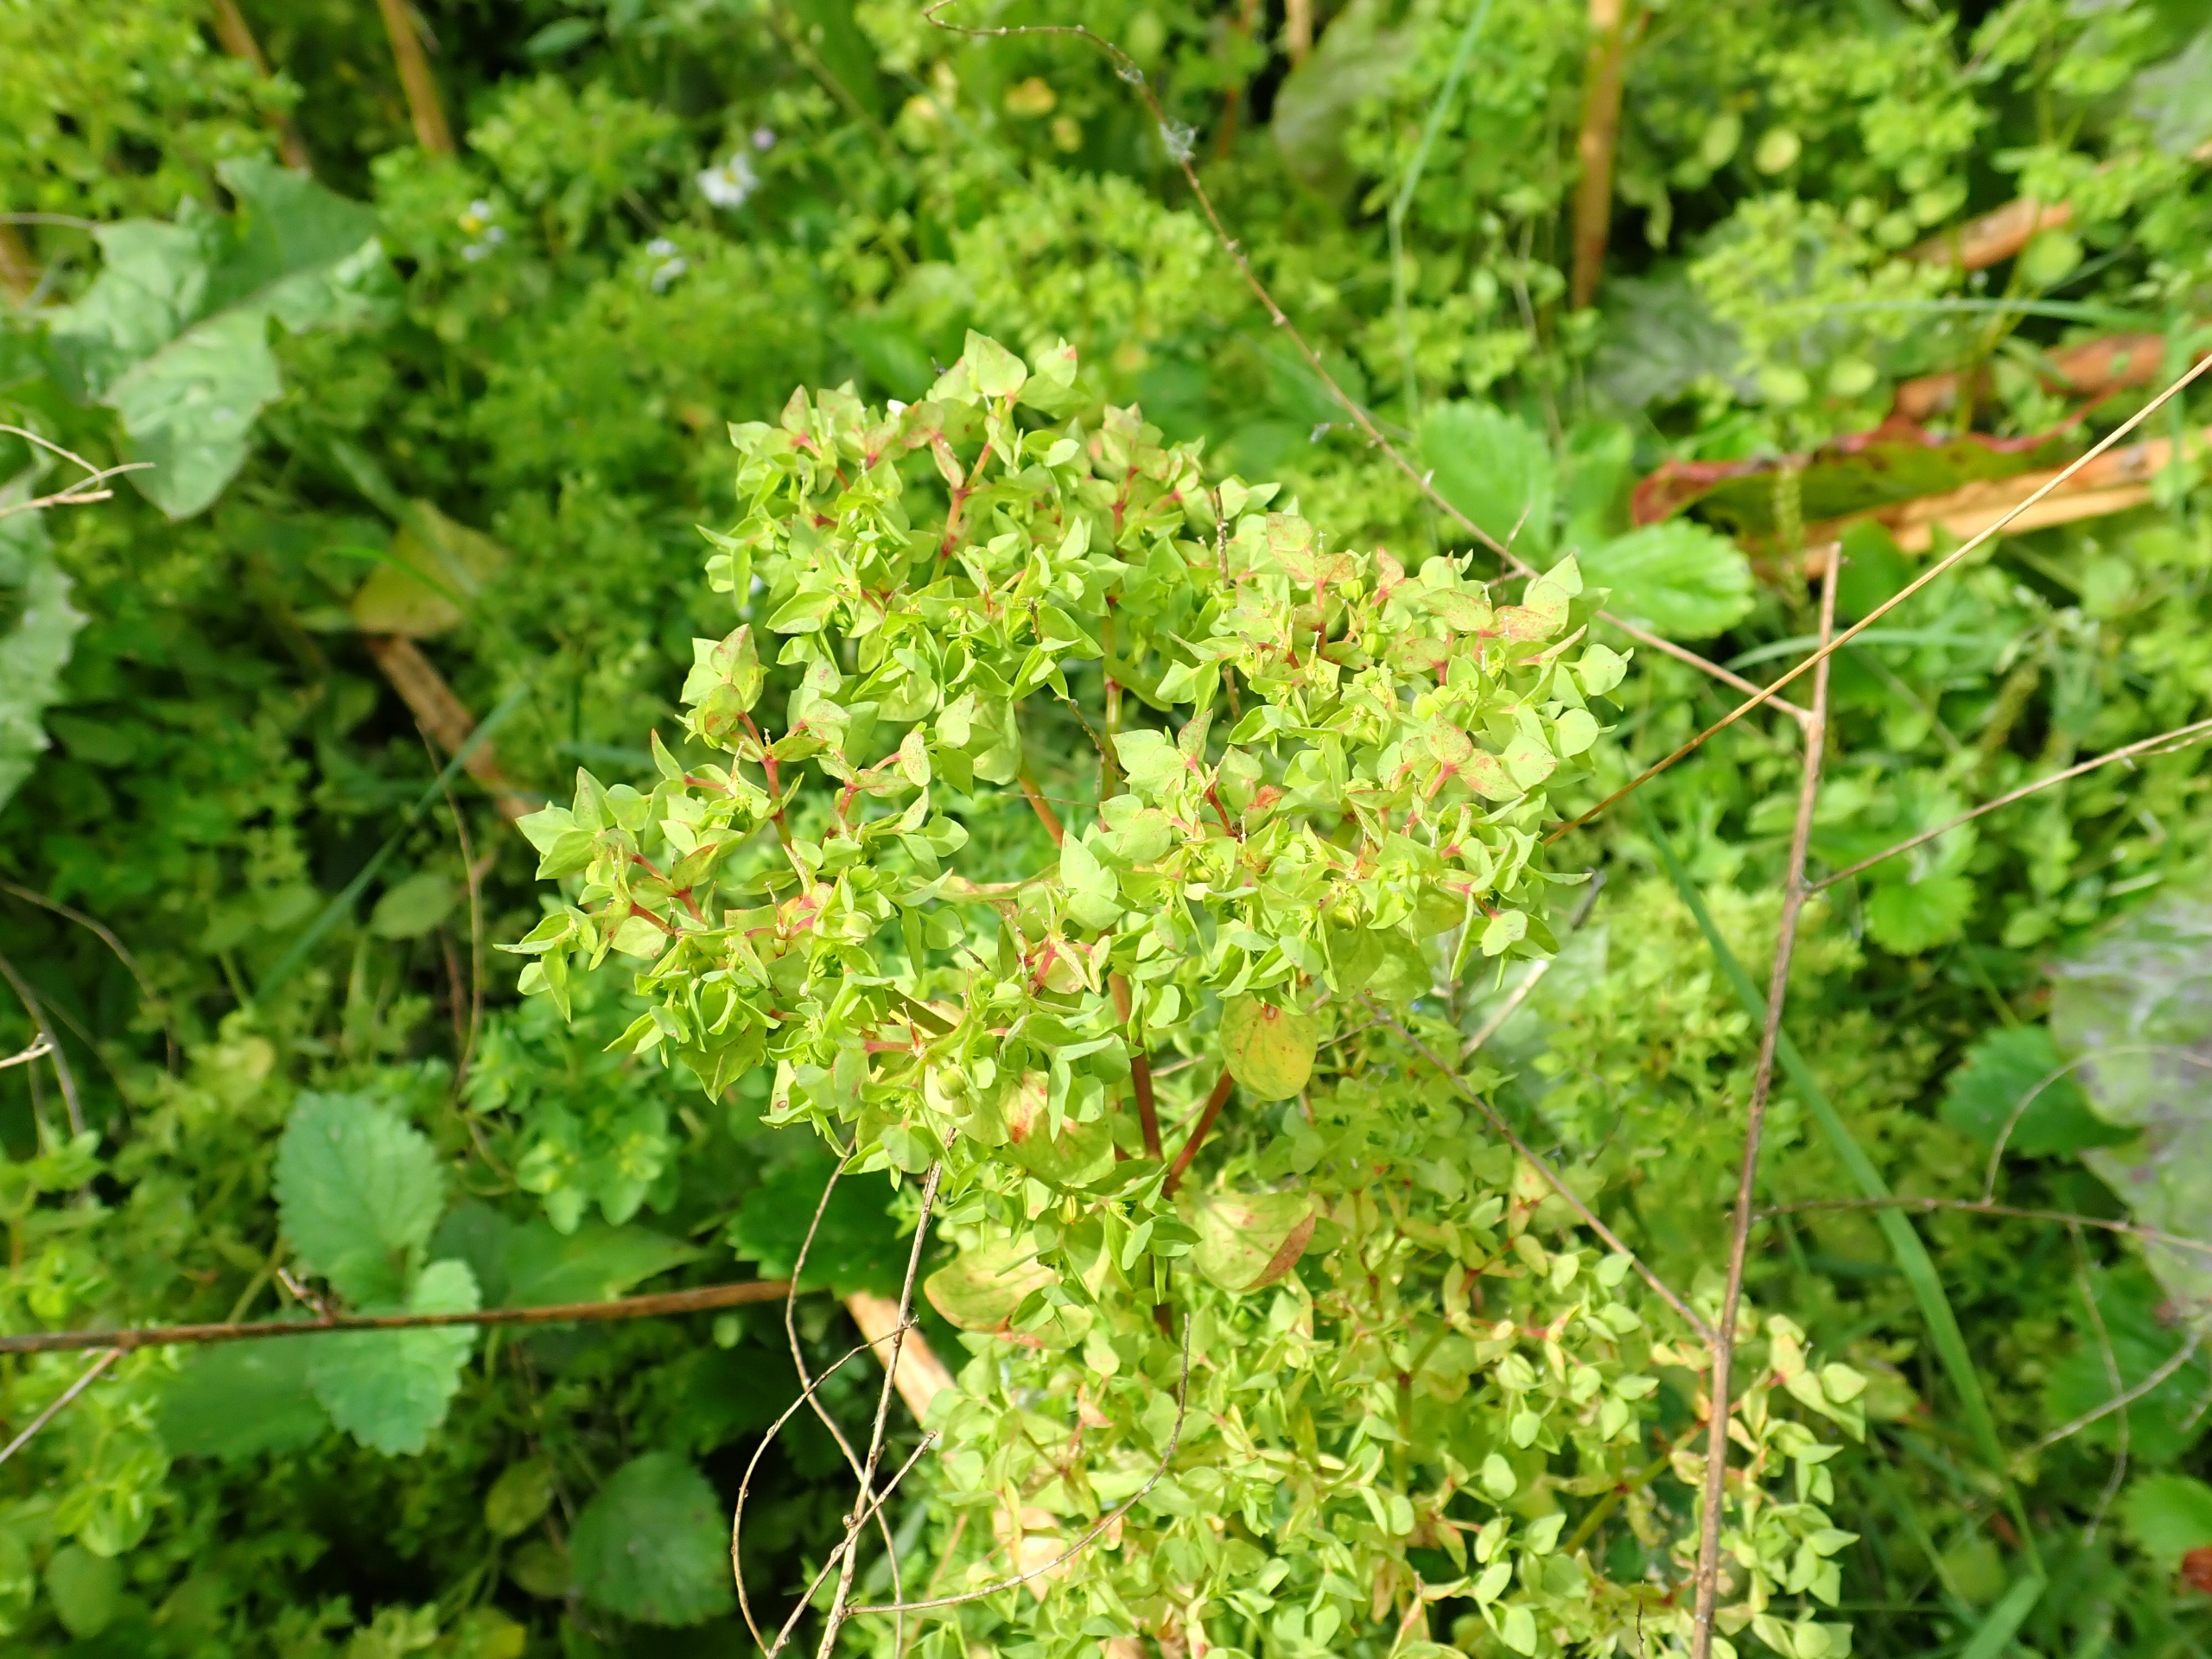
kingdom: Plantae
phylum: Tracheophyta
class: Magnoliopsida
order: Malpighiales
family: Euphorbiaceae
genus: Euphorbia
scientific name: Euphorbia peplus
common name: Gaffel-vortemælk
